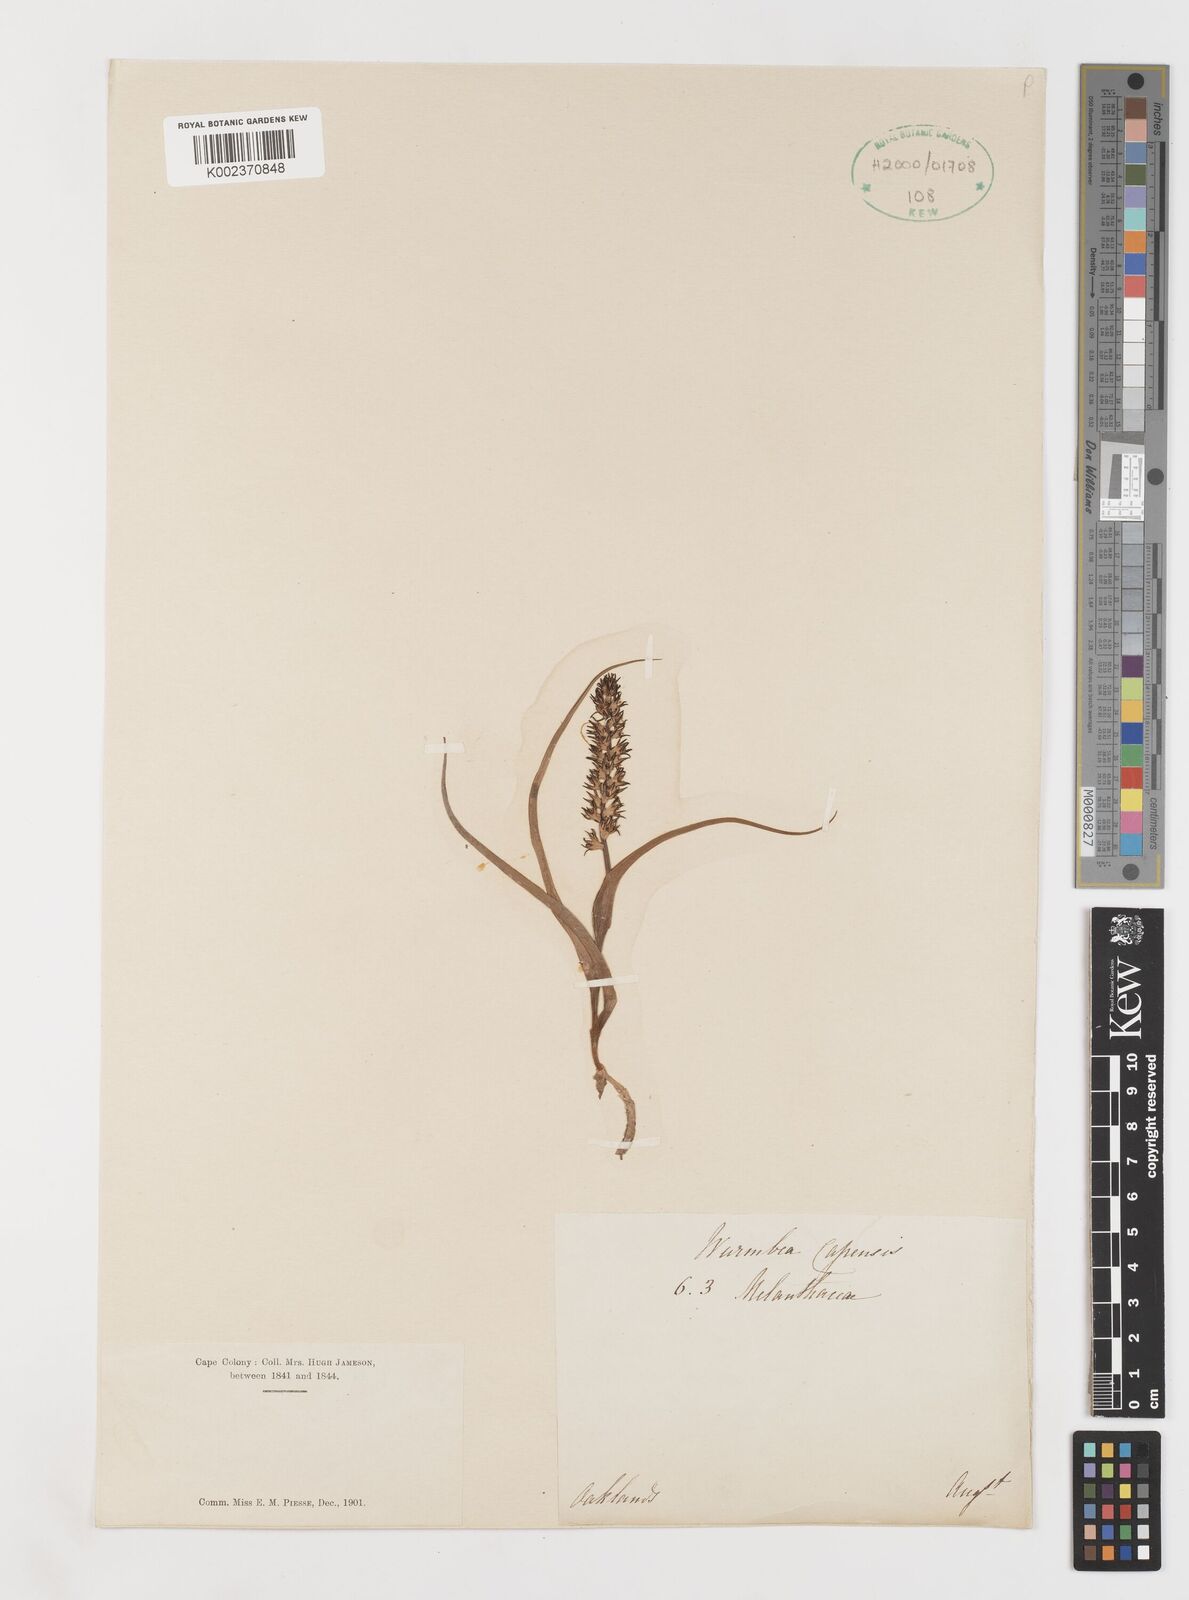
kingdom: Plantae
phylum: Tracheophyta
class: Liliopsida
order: Liliales
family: Colchicaceae
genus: Wurmbea
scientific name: Wurmbea capensis
